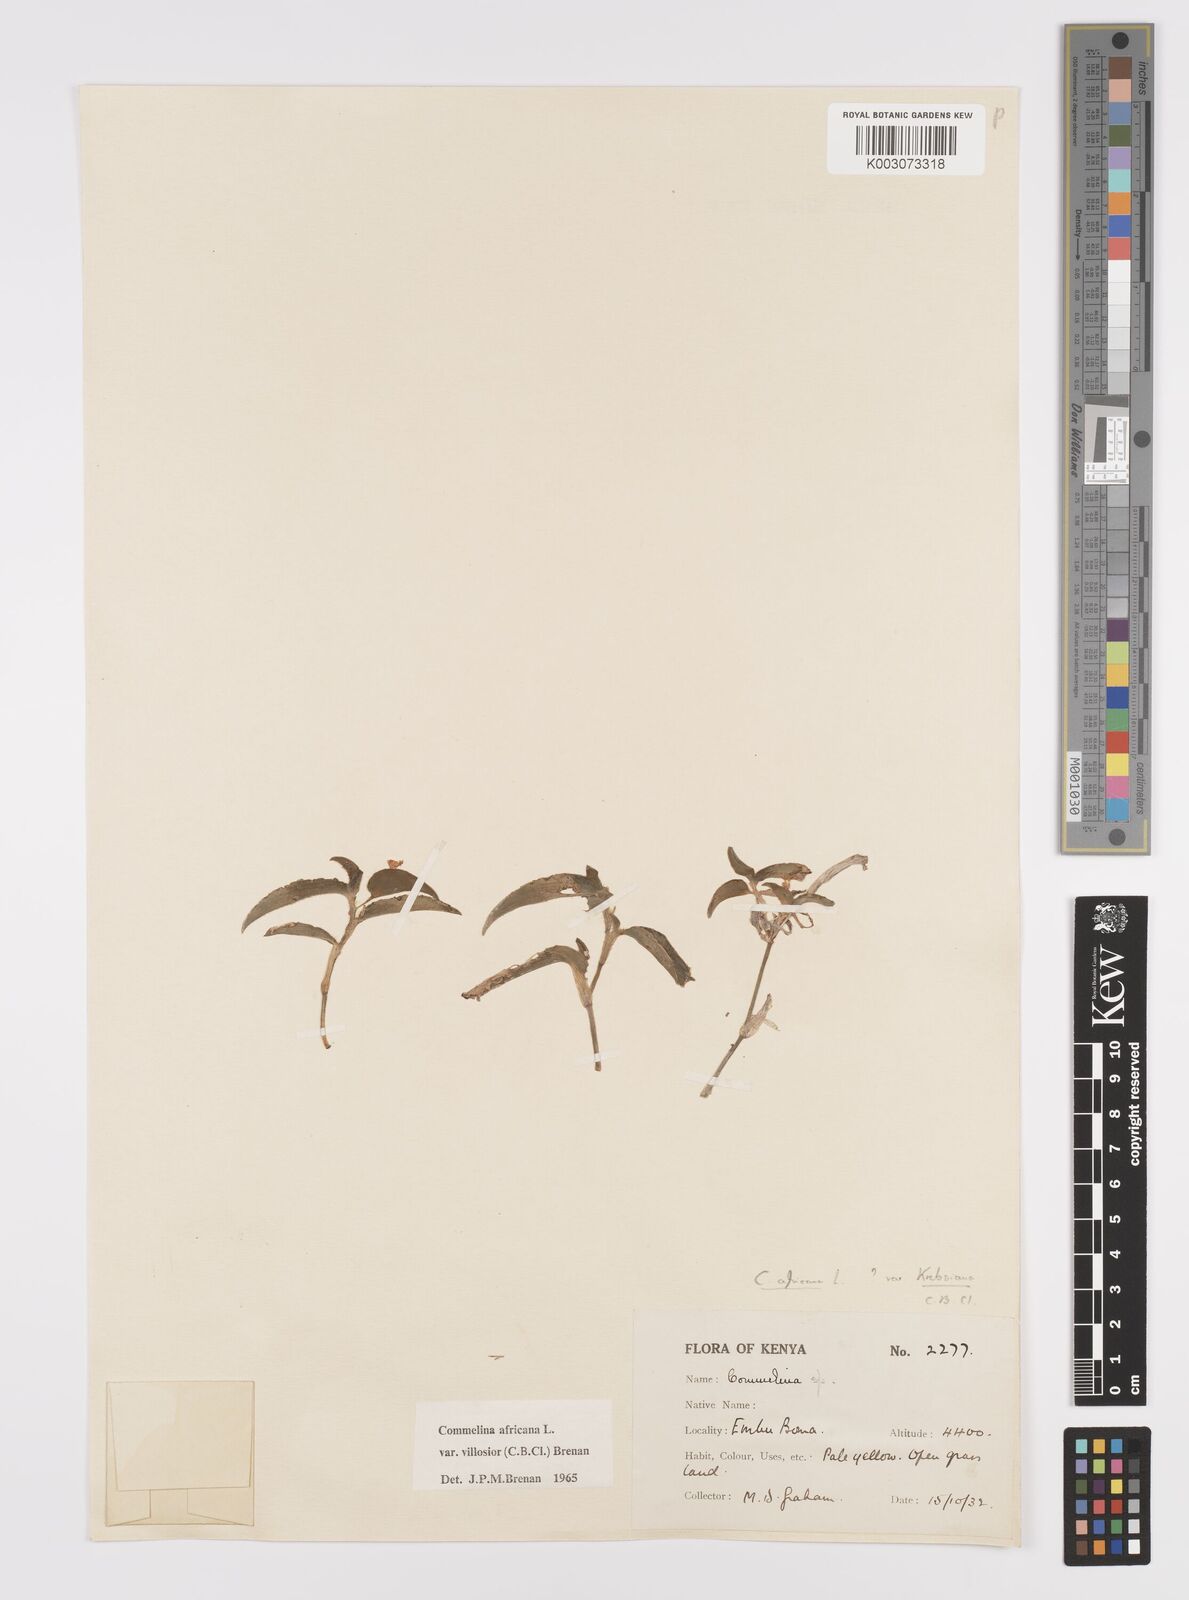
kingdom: Plantae
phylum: Tracheophyta
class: Liliopsida
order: Commelinales
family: Commelinaceae
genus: Commelina
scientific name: Commelina africana
